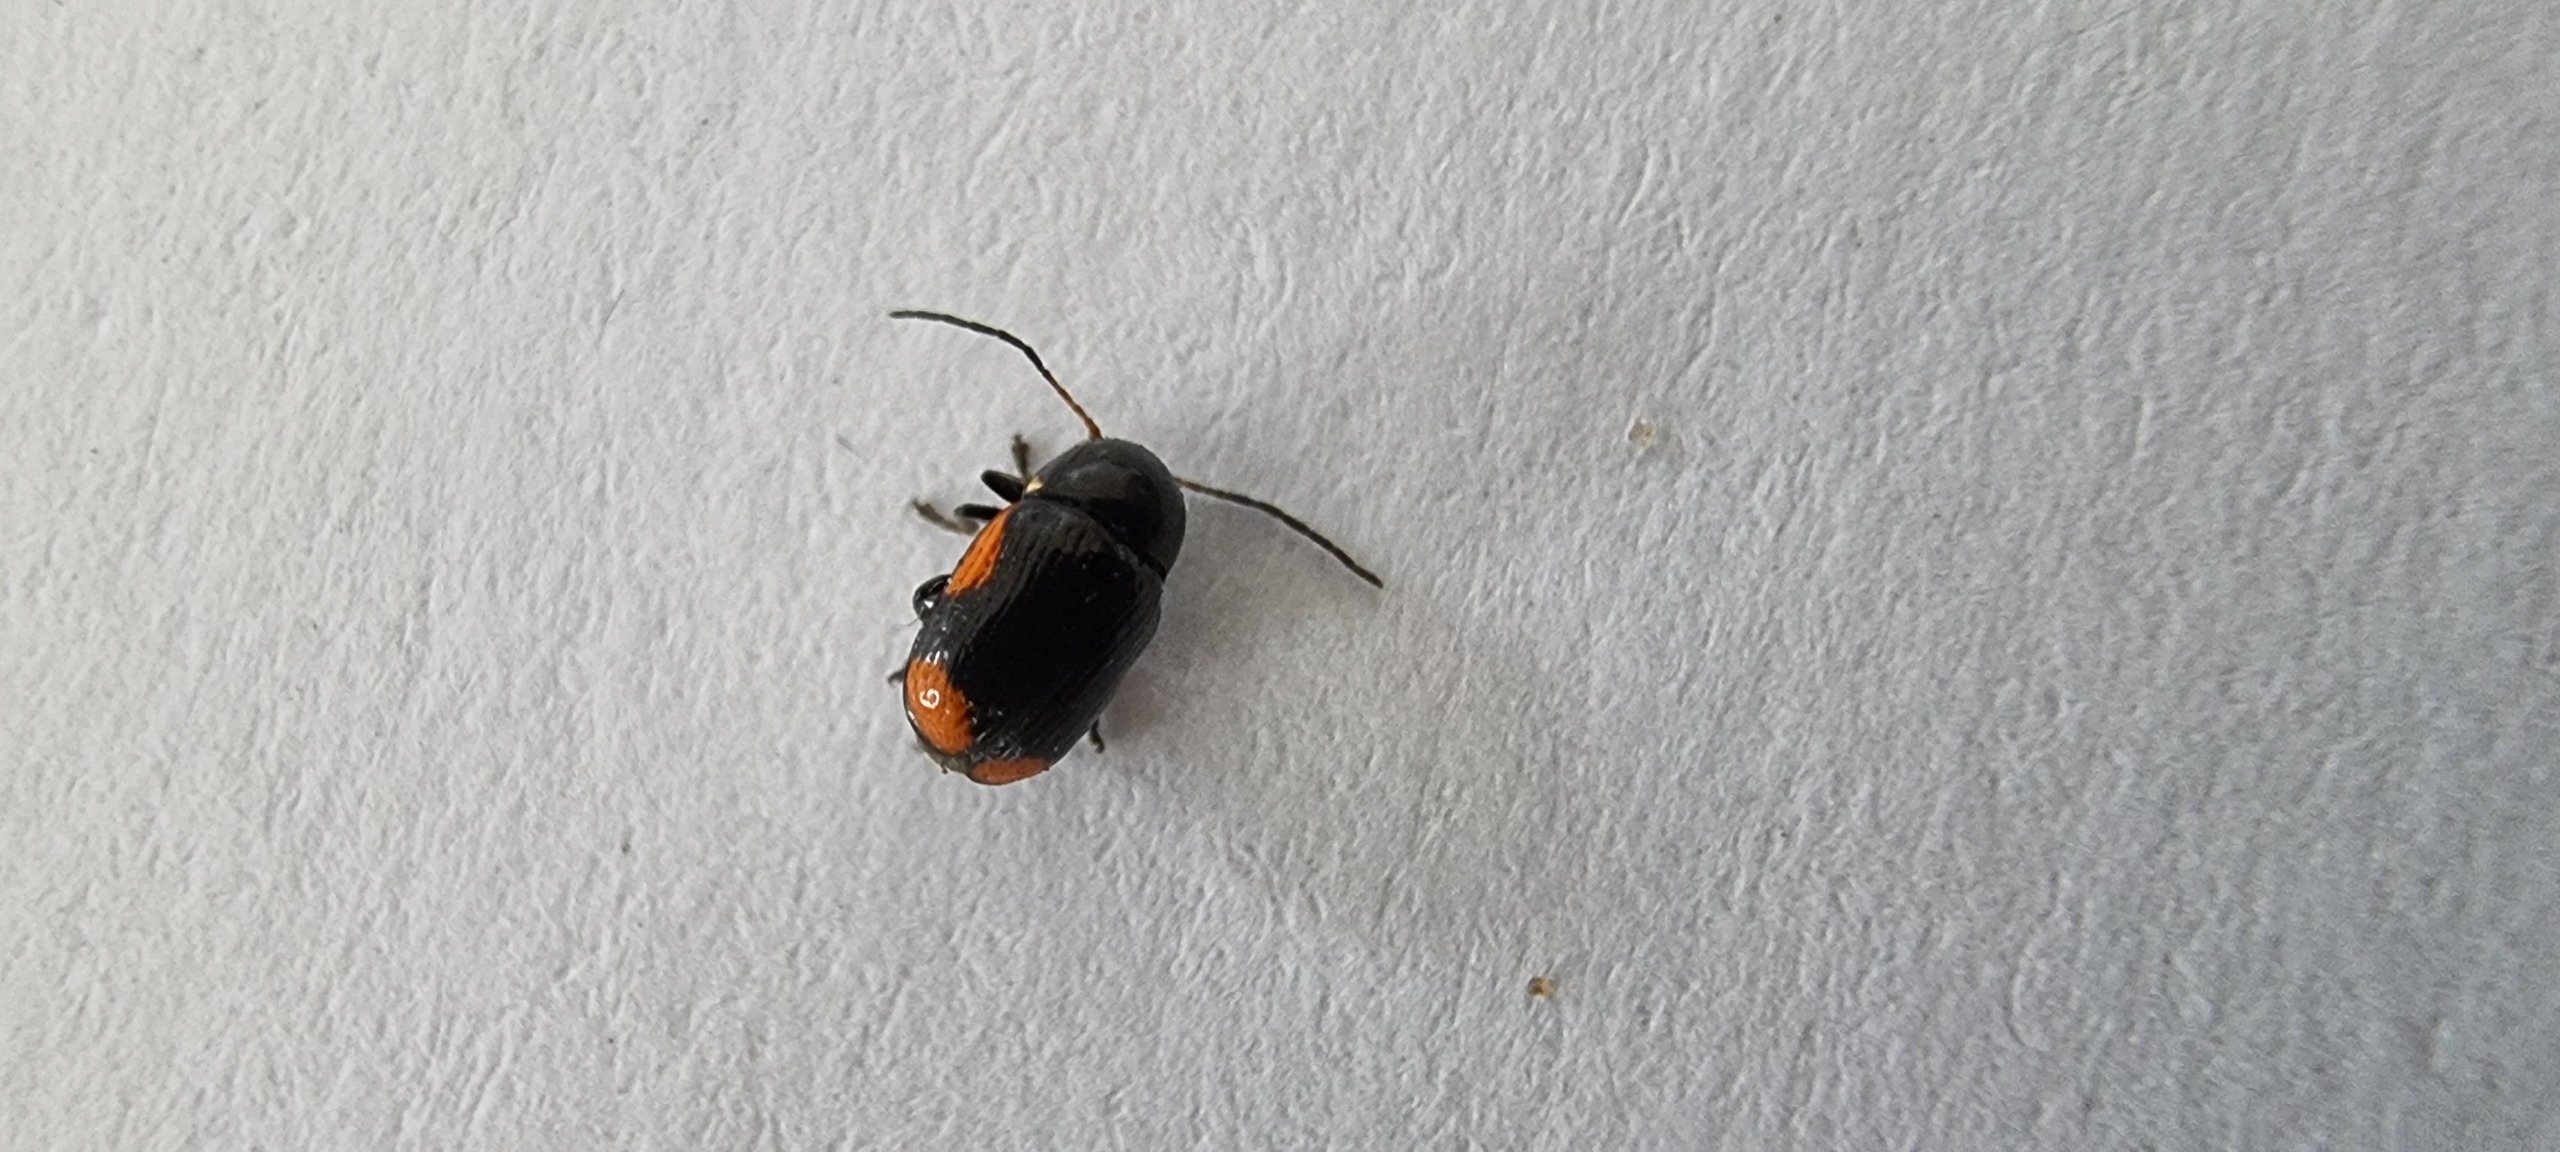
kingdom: Animalia
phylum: Arthropoda
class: Insecta
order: Coleoptera
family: Chrysomelidae
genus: Cryptocephalus
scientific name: Cryptocephalus moraei
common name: Perikonfaldbille
